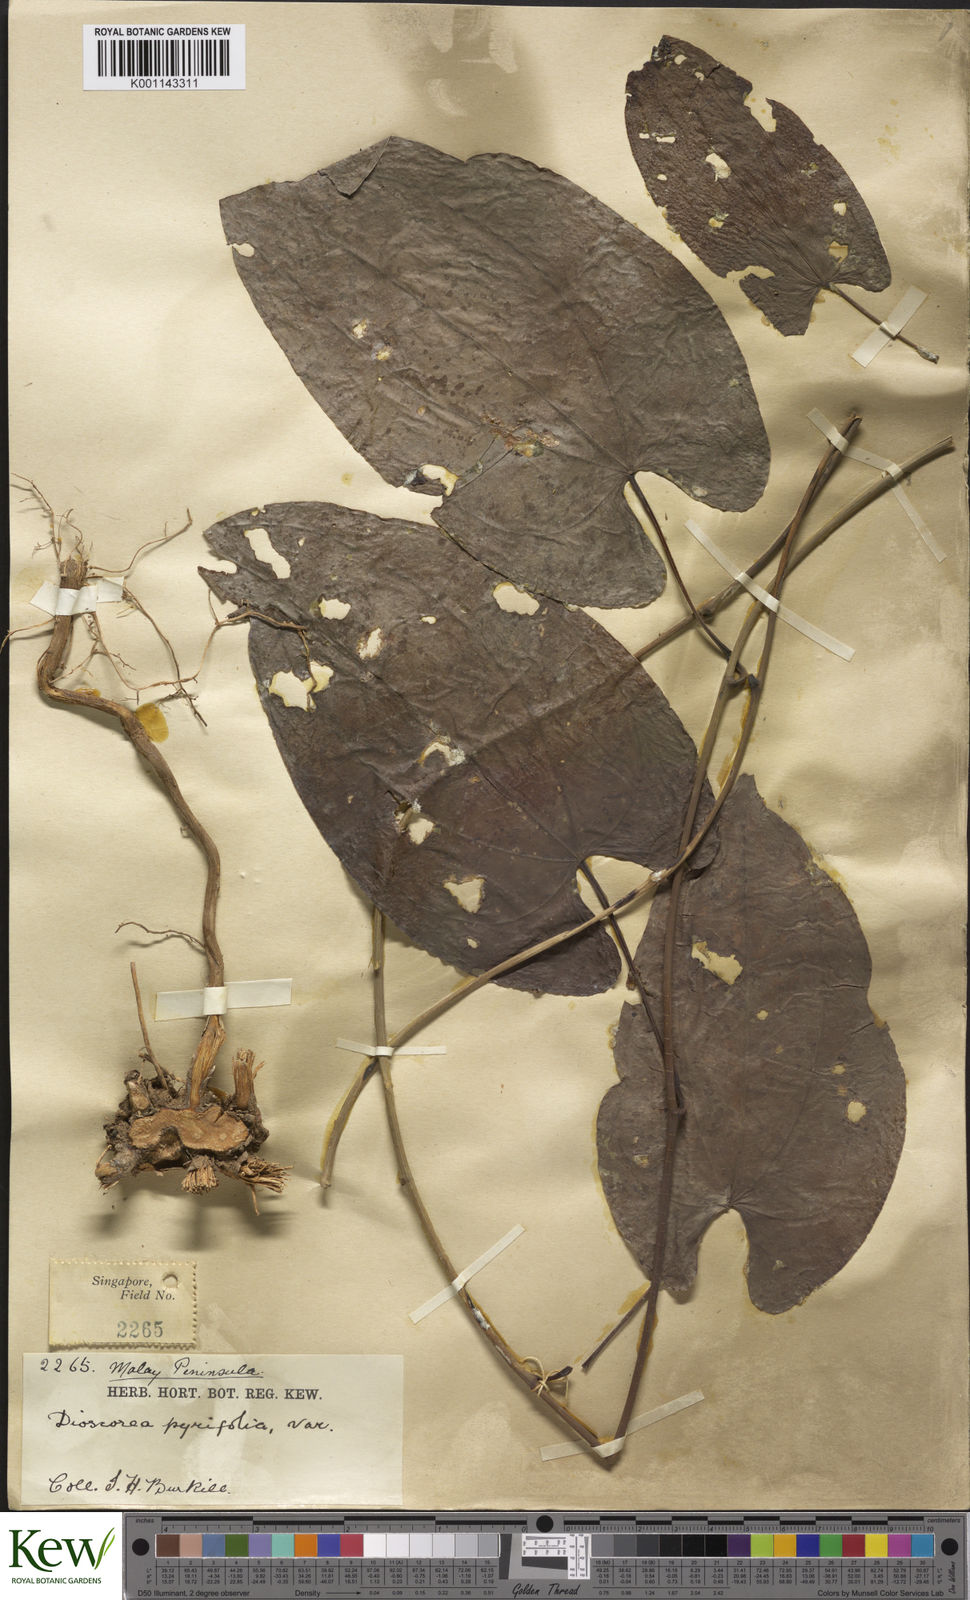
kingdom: Plantae
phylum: Tracheophyta
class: Liliopsida
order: Dioscoreales
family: Dioscoreaceae
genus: Dioscorea
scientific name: Dioscorea glabra
